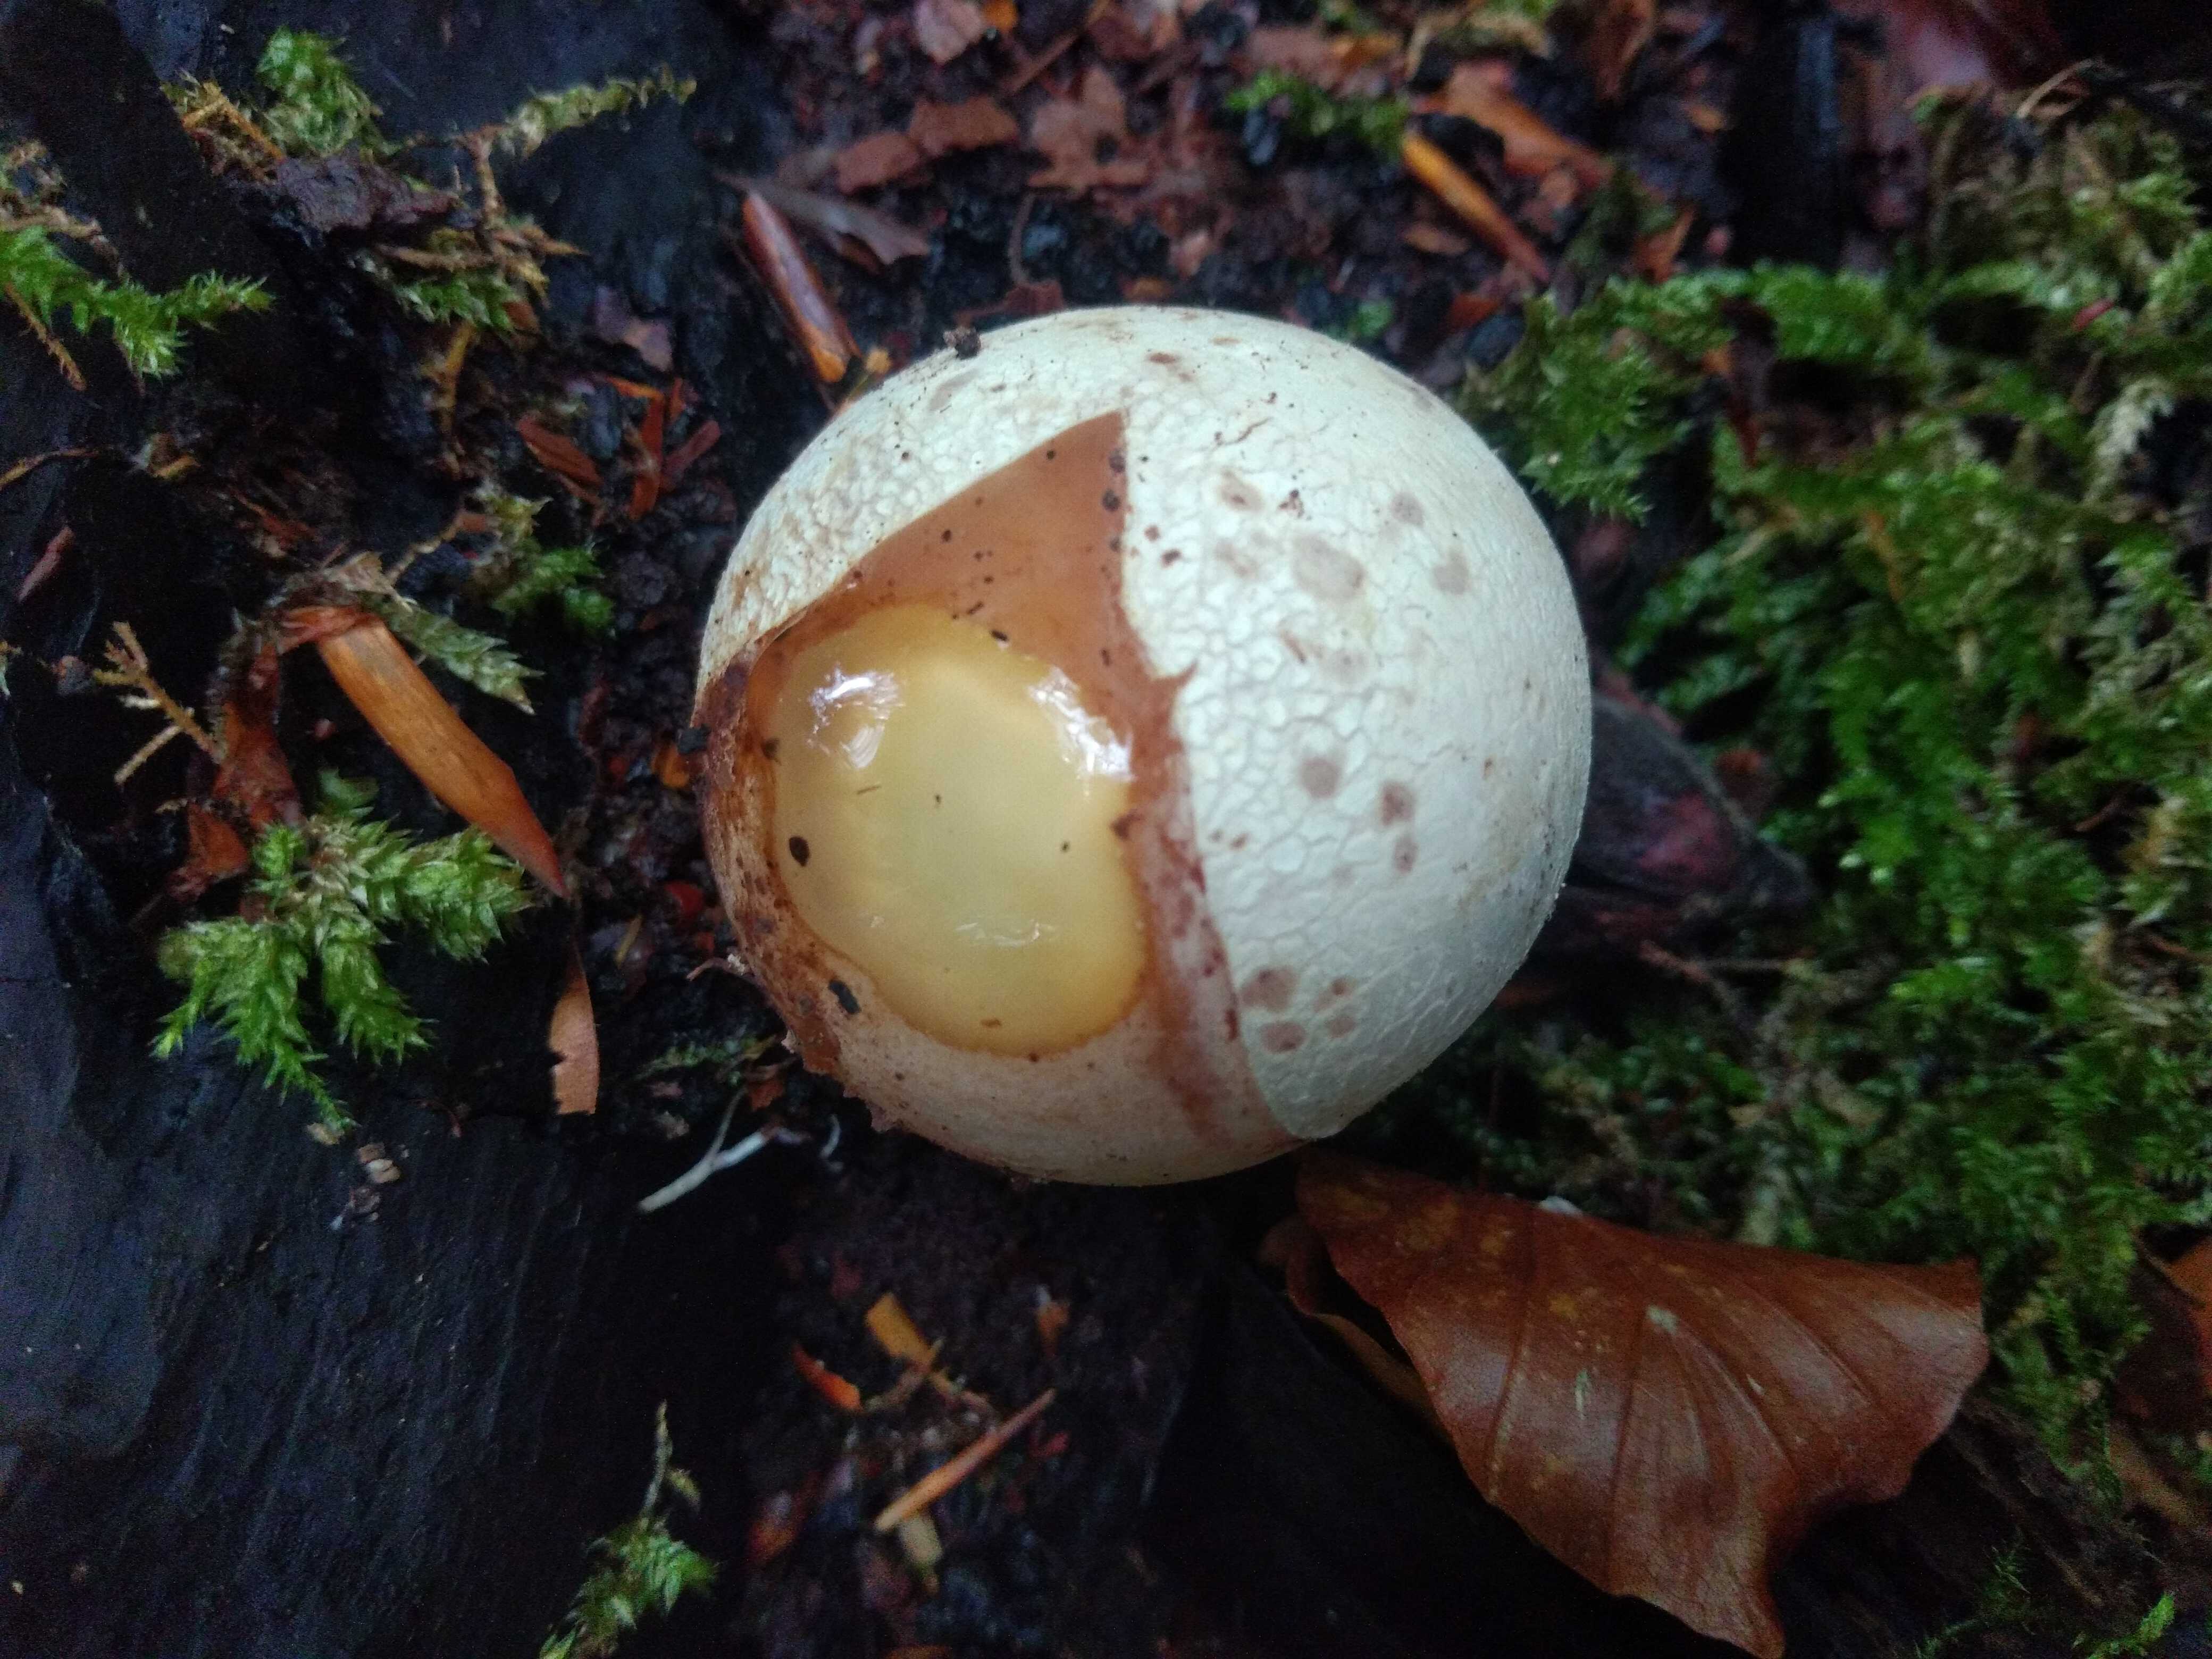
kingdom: Fungi
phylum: Basidiomycota
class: Agaricomycetes
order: Phallales
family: Phallaceae
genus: Phallus
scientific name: Phallus impudicus
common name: almindelig stinksvamp
